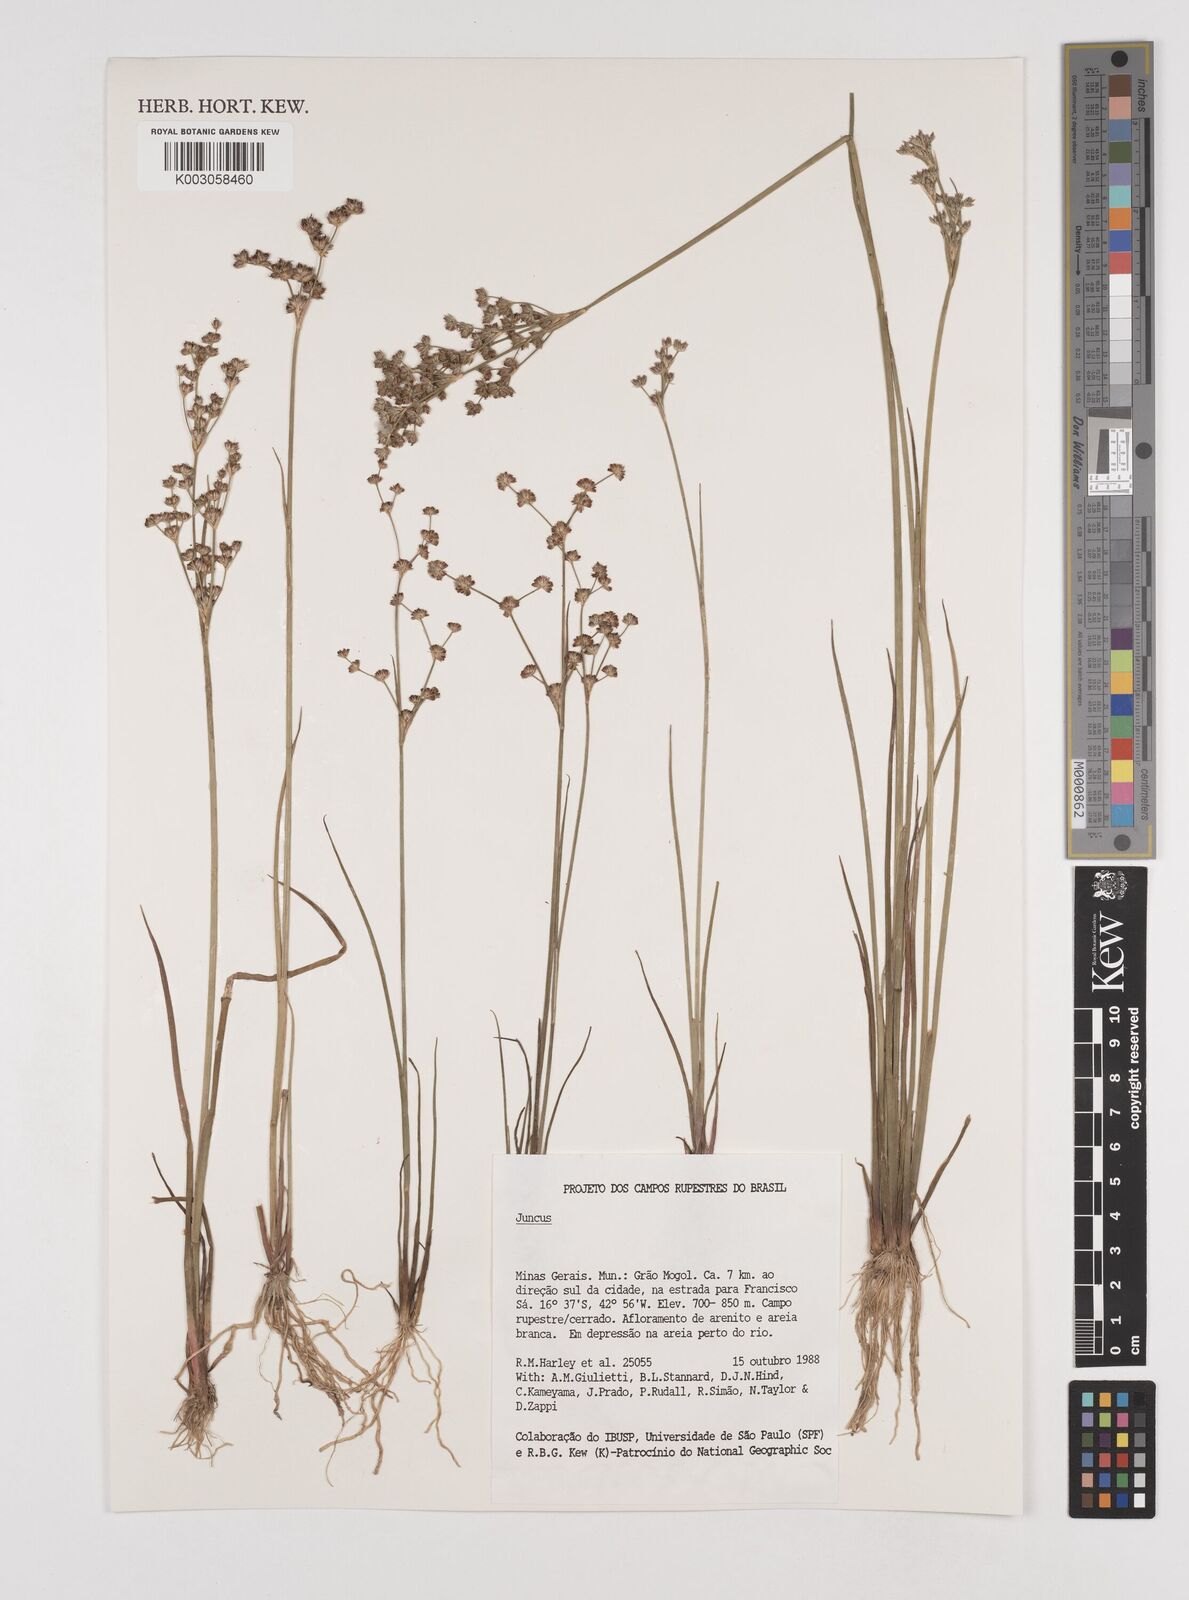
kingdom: Plantae
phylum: Tracheophyta
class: Liliopsida
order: Poales
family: Juncaceae
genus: Juncus
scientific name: Juncus
